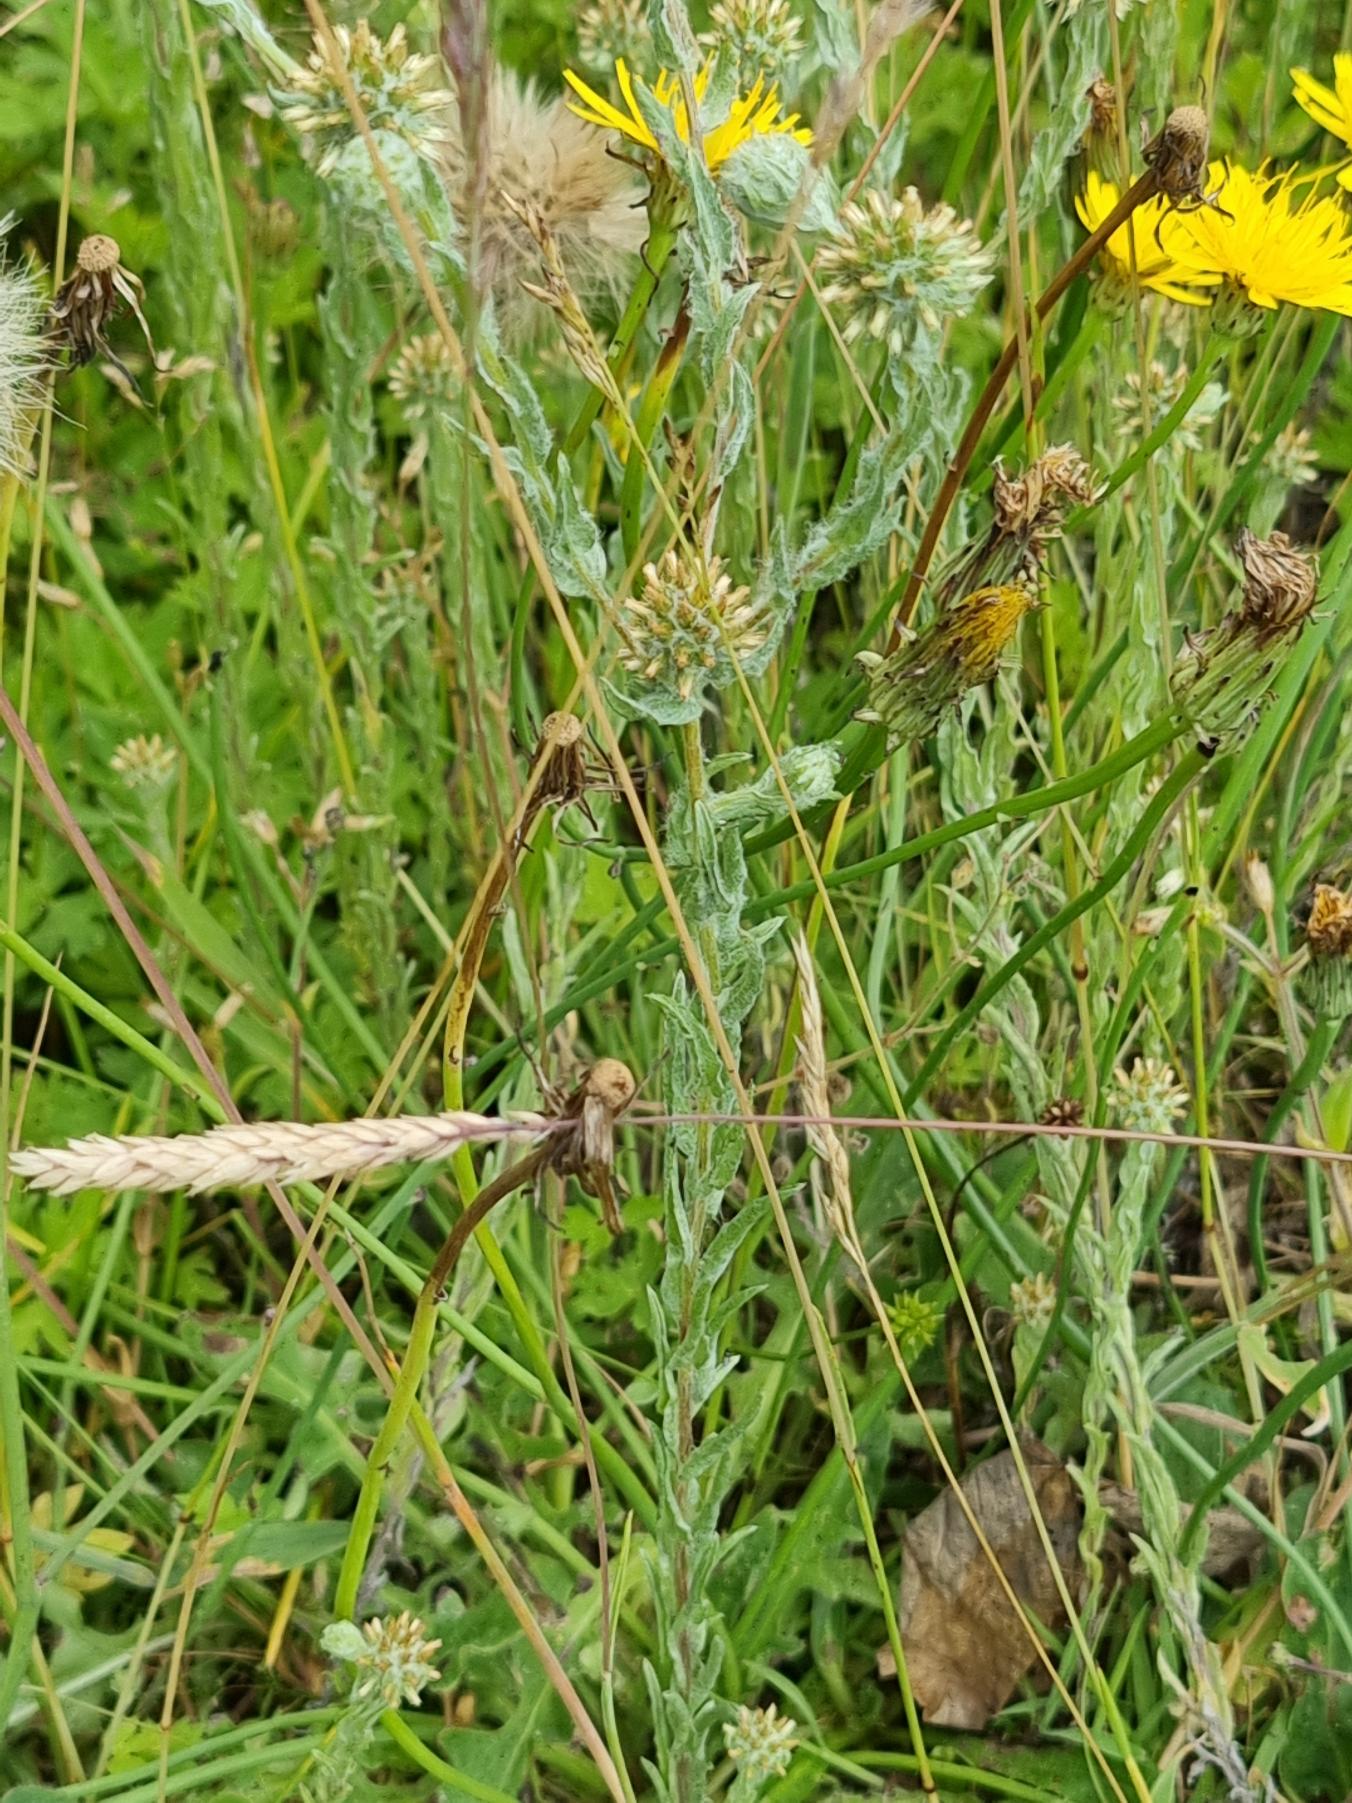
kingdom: Plantae
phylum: Tracheophyta
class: Magnoliopsida
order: Asterales
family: Asteraceae
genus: Filago
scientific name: Filago germanica
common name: Kugle-museurt
